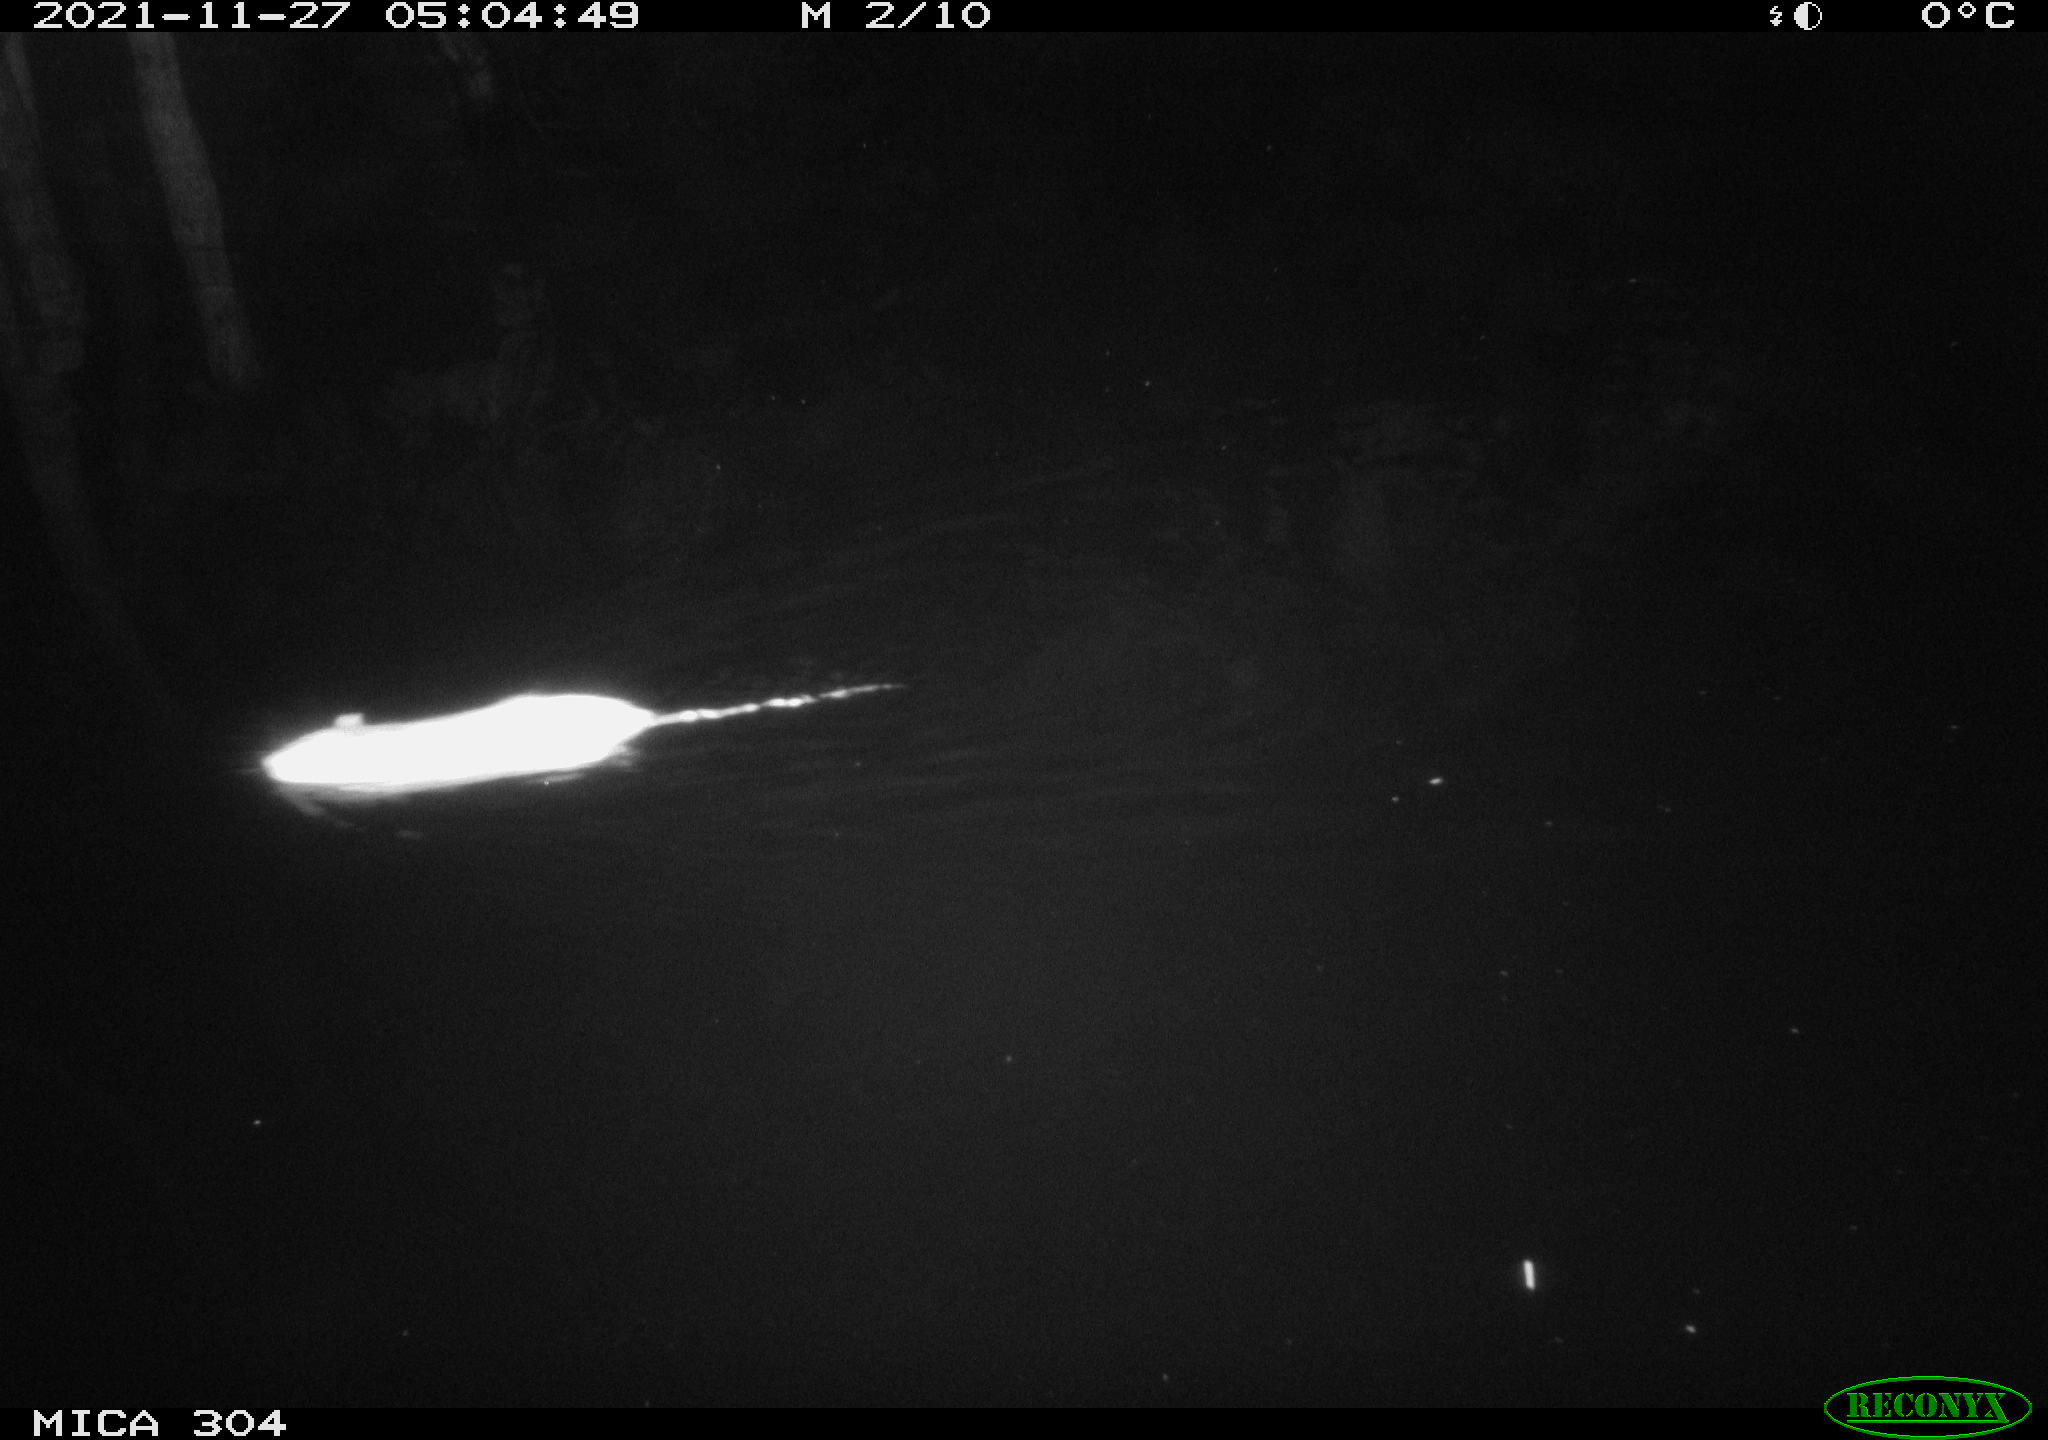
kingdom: Animalia
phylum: Chordata
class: Mammalia
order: Rodentia
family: Muridae
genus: Rattus
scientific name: Rattus norvegicus
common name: Brown rat
